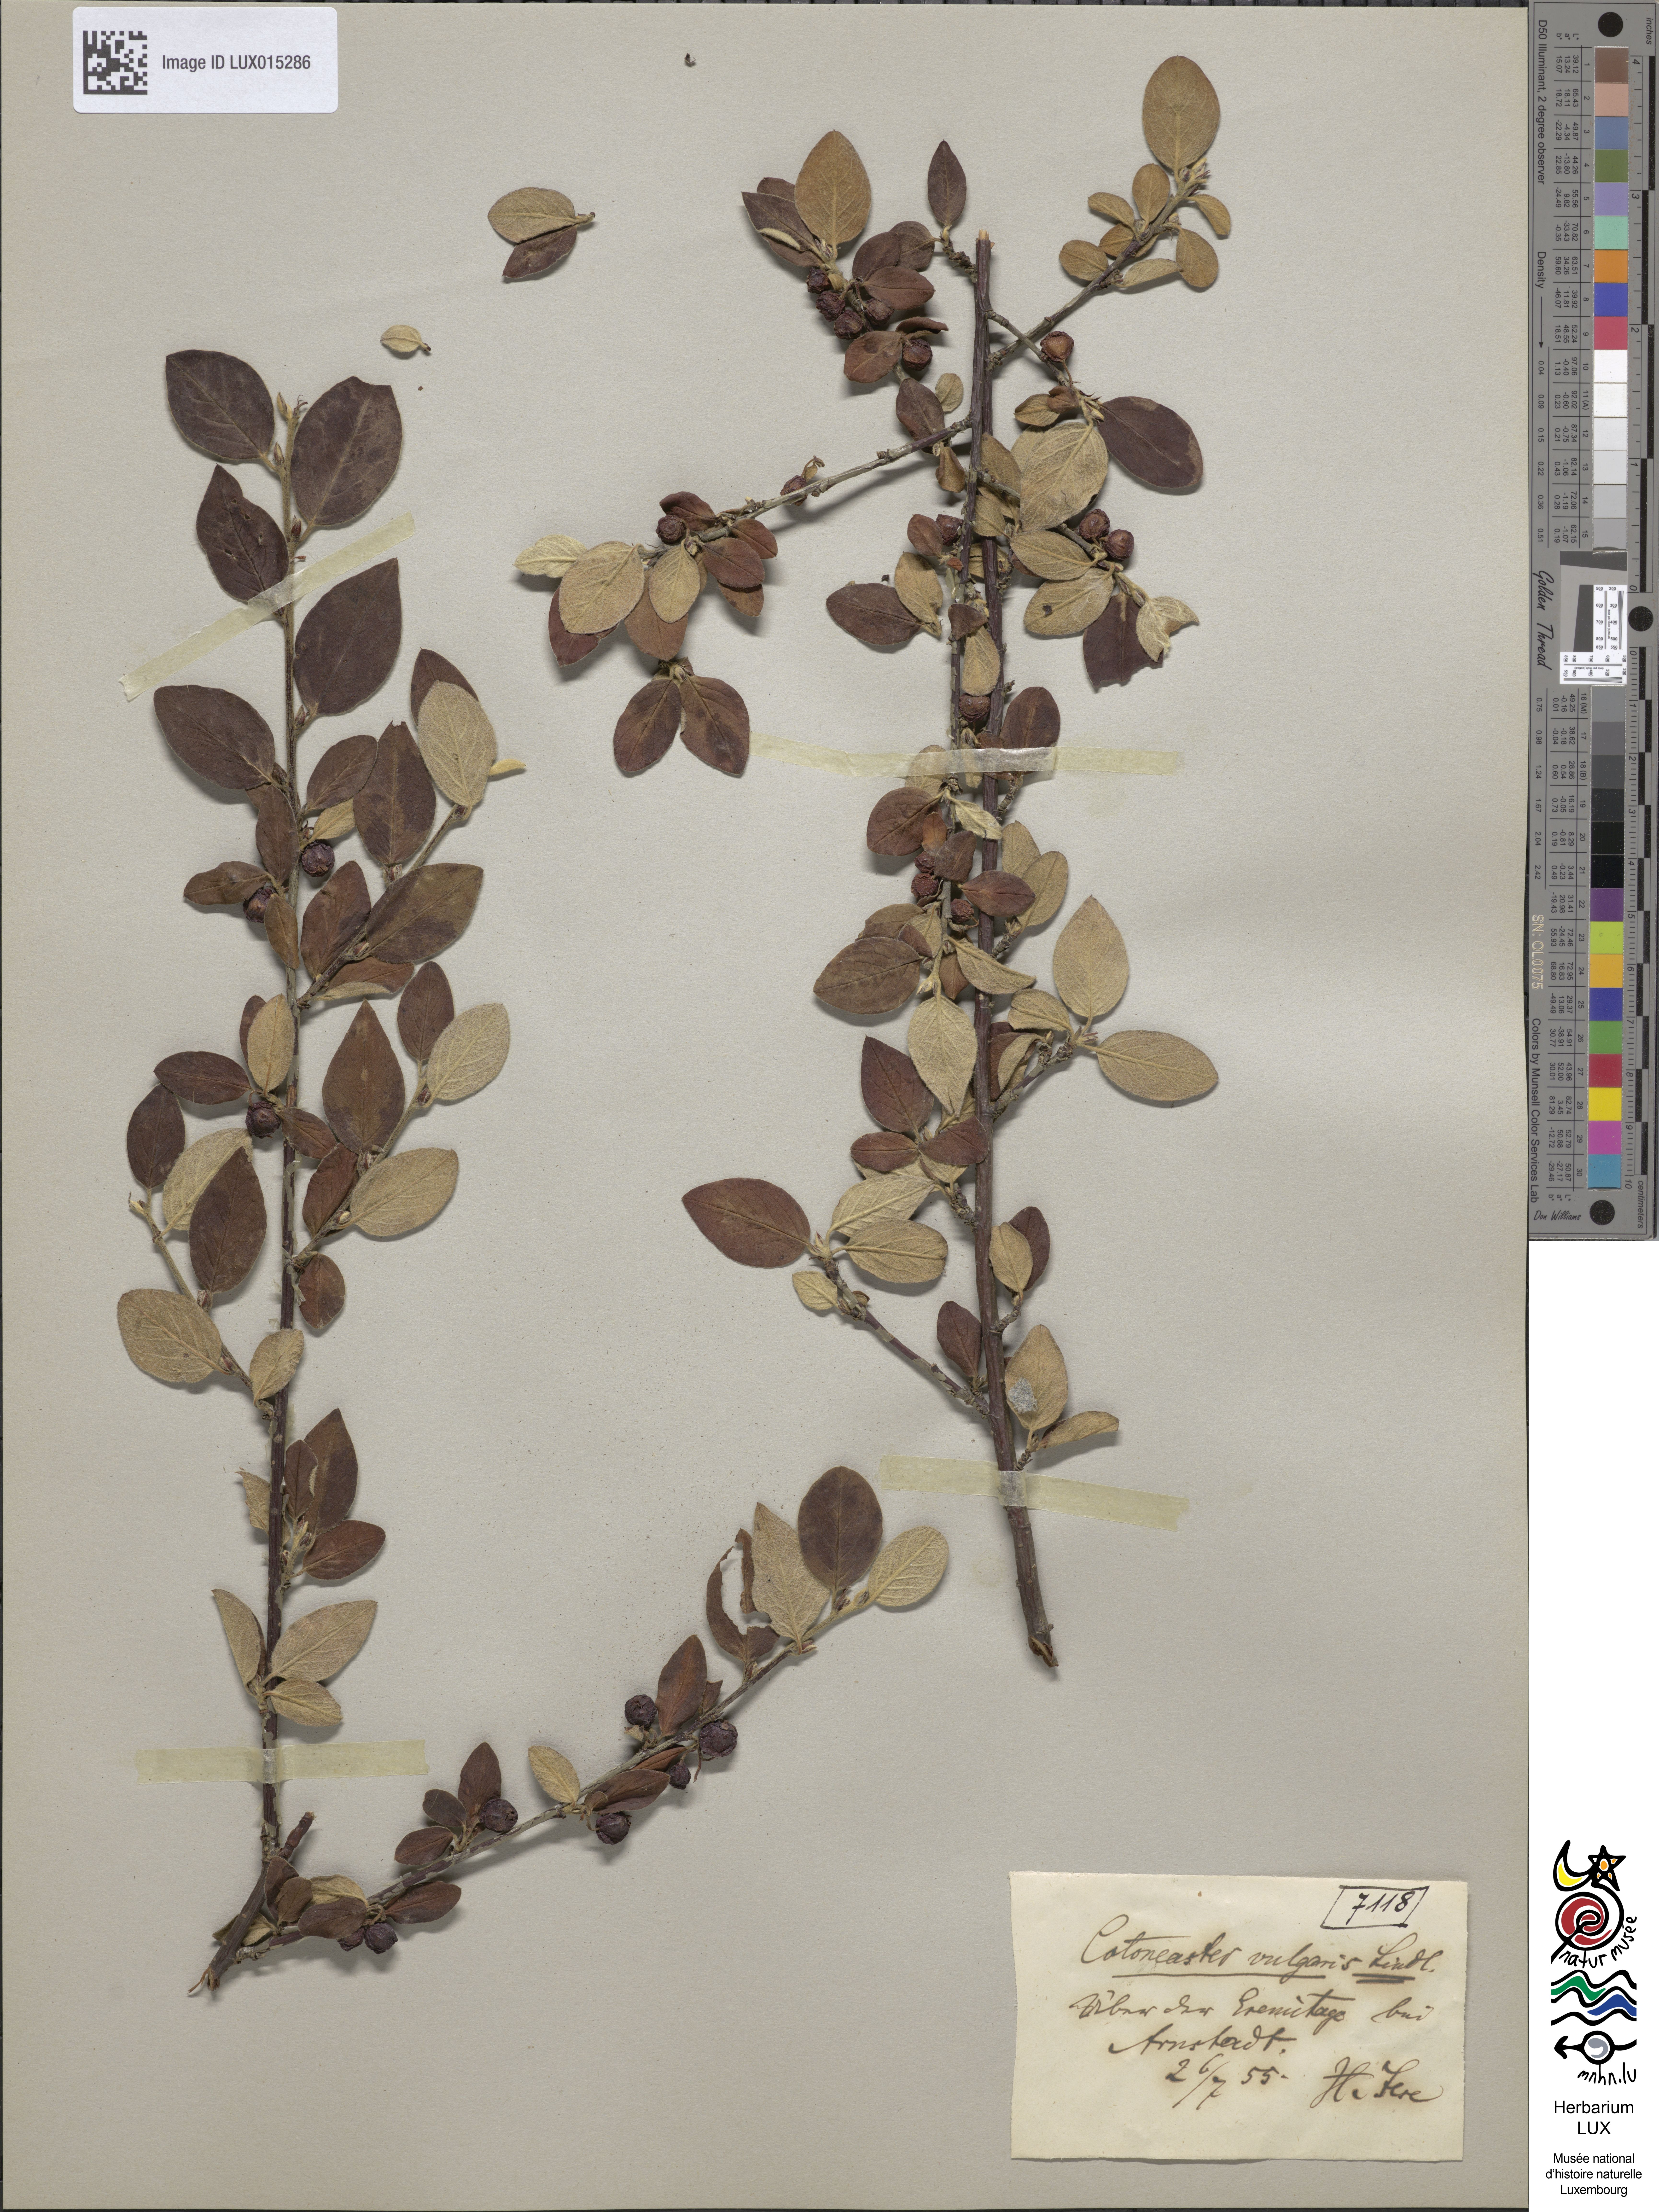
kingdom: Plantae
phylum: Tracheophyta
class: Magnoliopsida
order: Rosales
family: Rosaceae
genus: Cotoneaster
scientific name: Cotoneaster integerrimus
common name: Wild cotoneaster
